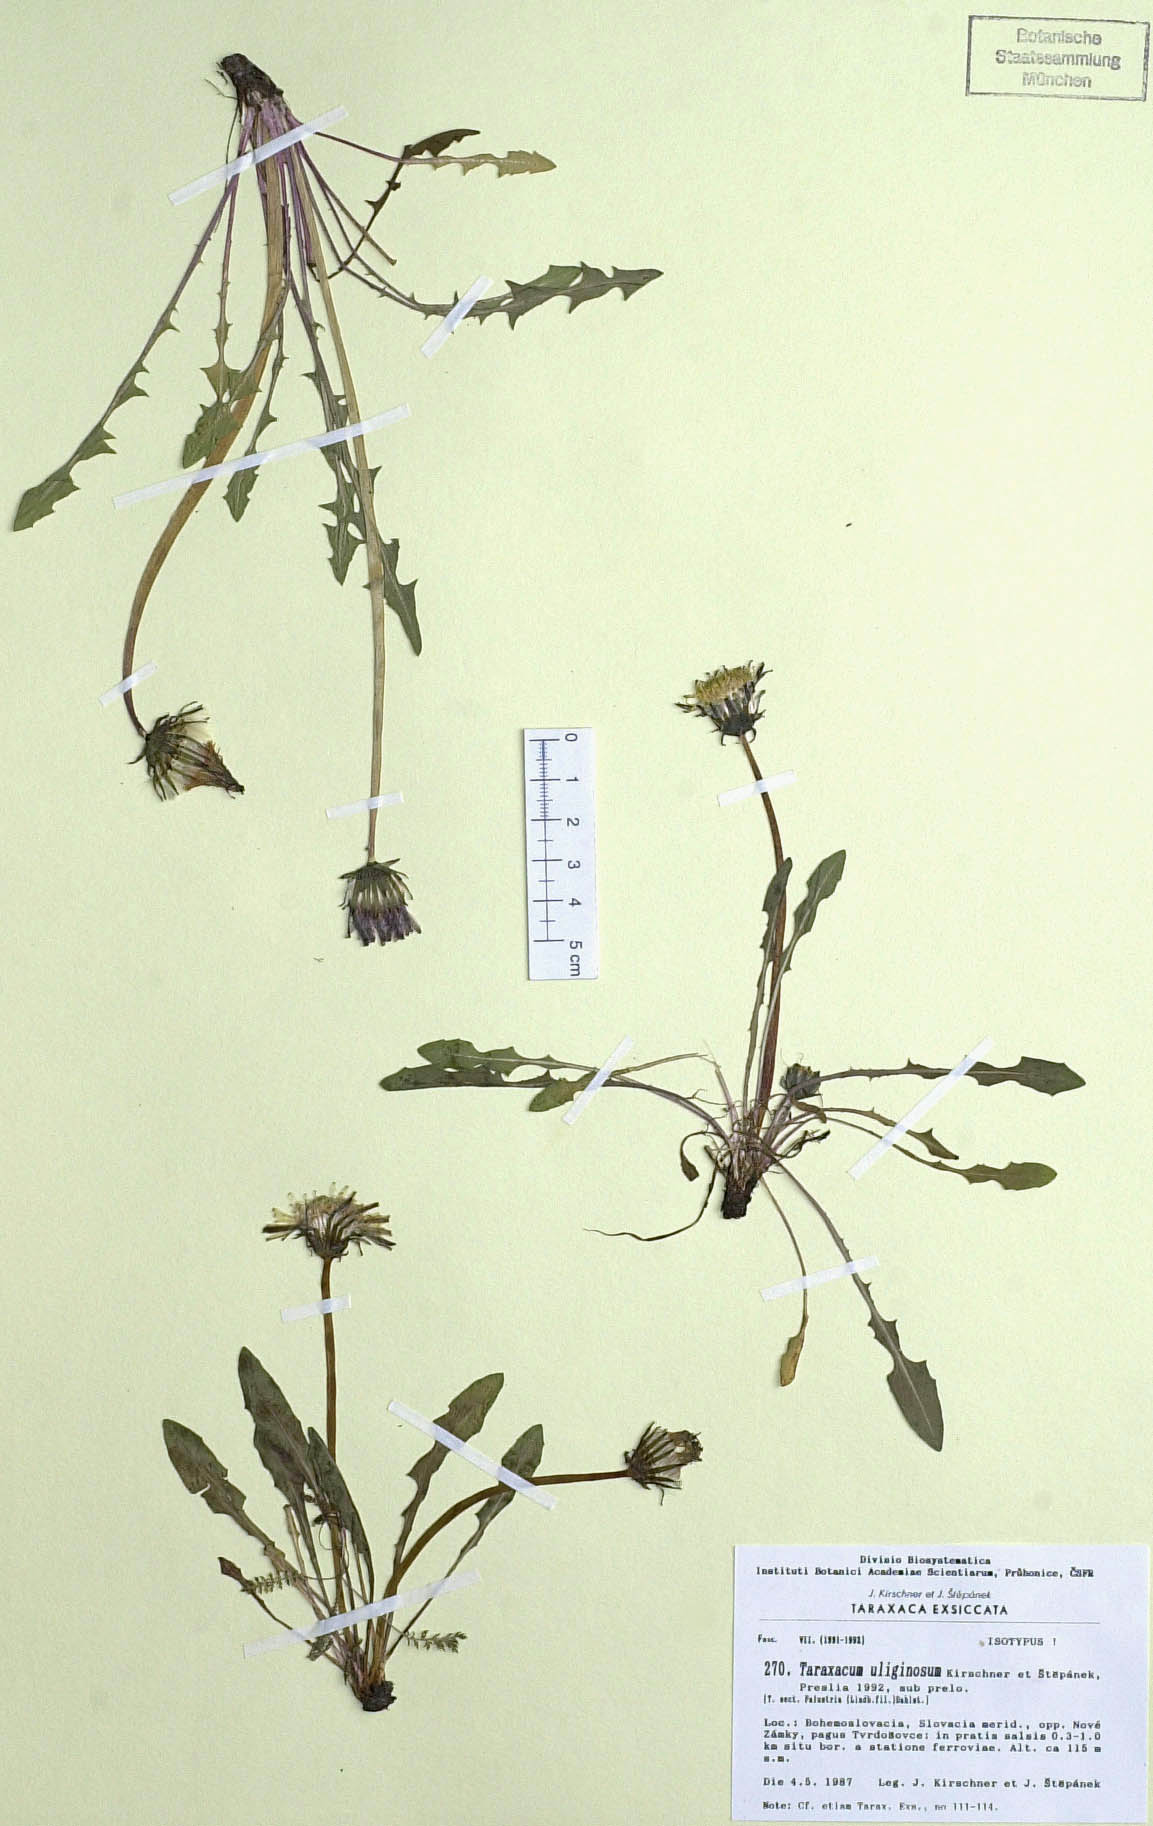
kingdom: Plantae
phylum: Tracheophyta
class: Magnoliopsida
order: Asterales
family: Asteraceae
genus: Taraxacum
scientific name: Taraxacum uliginosum
